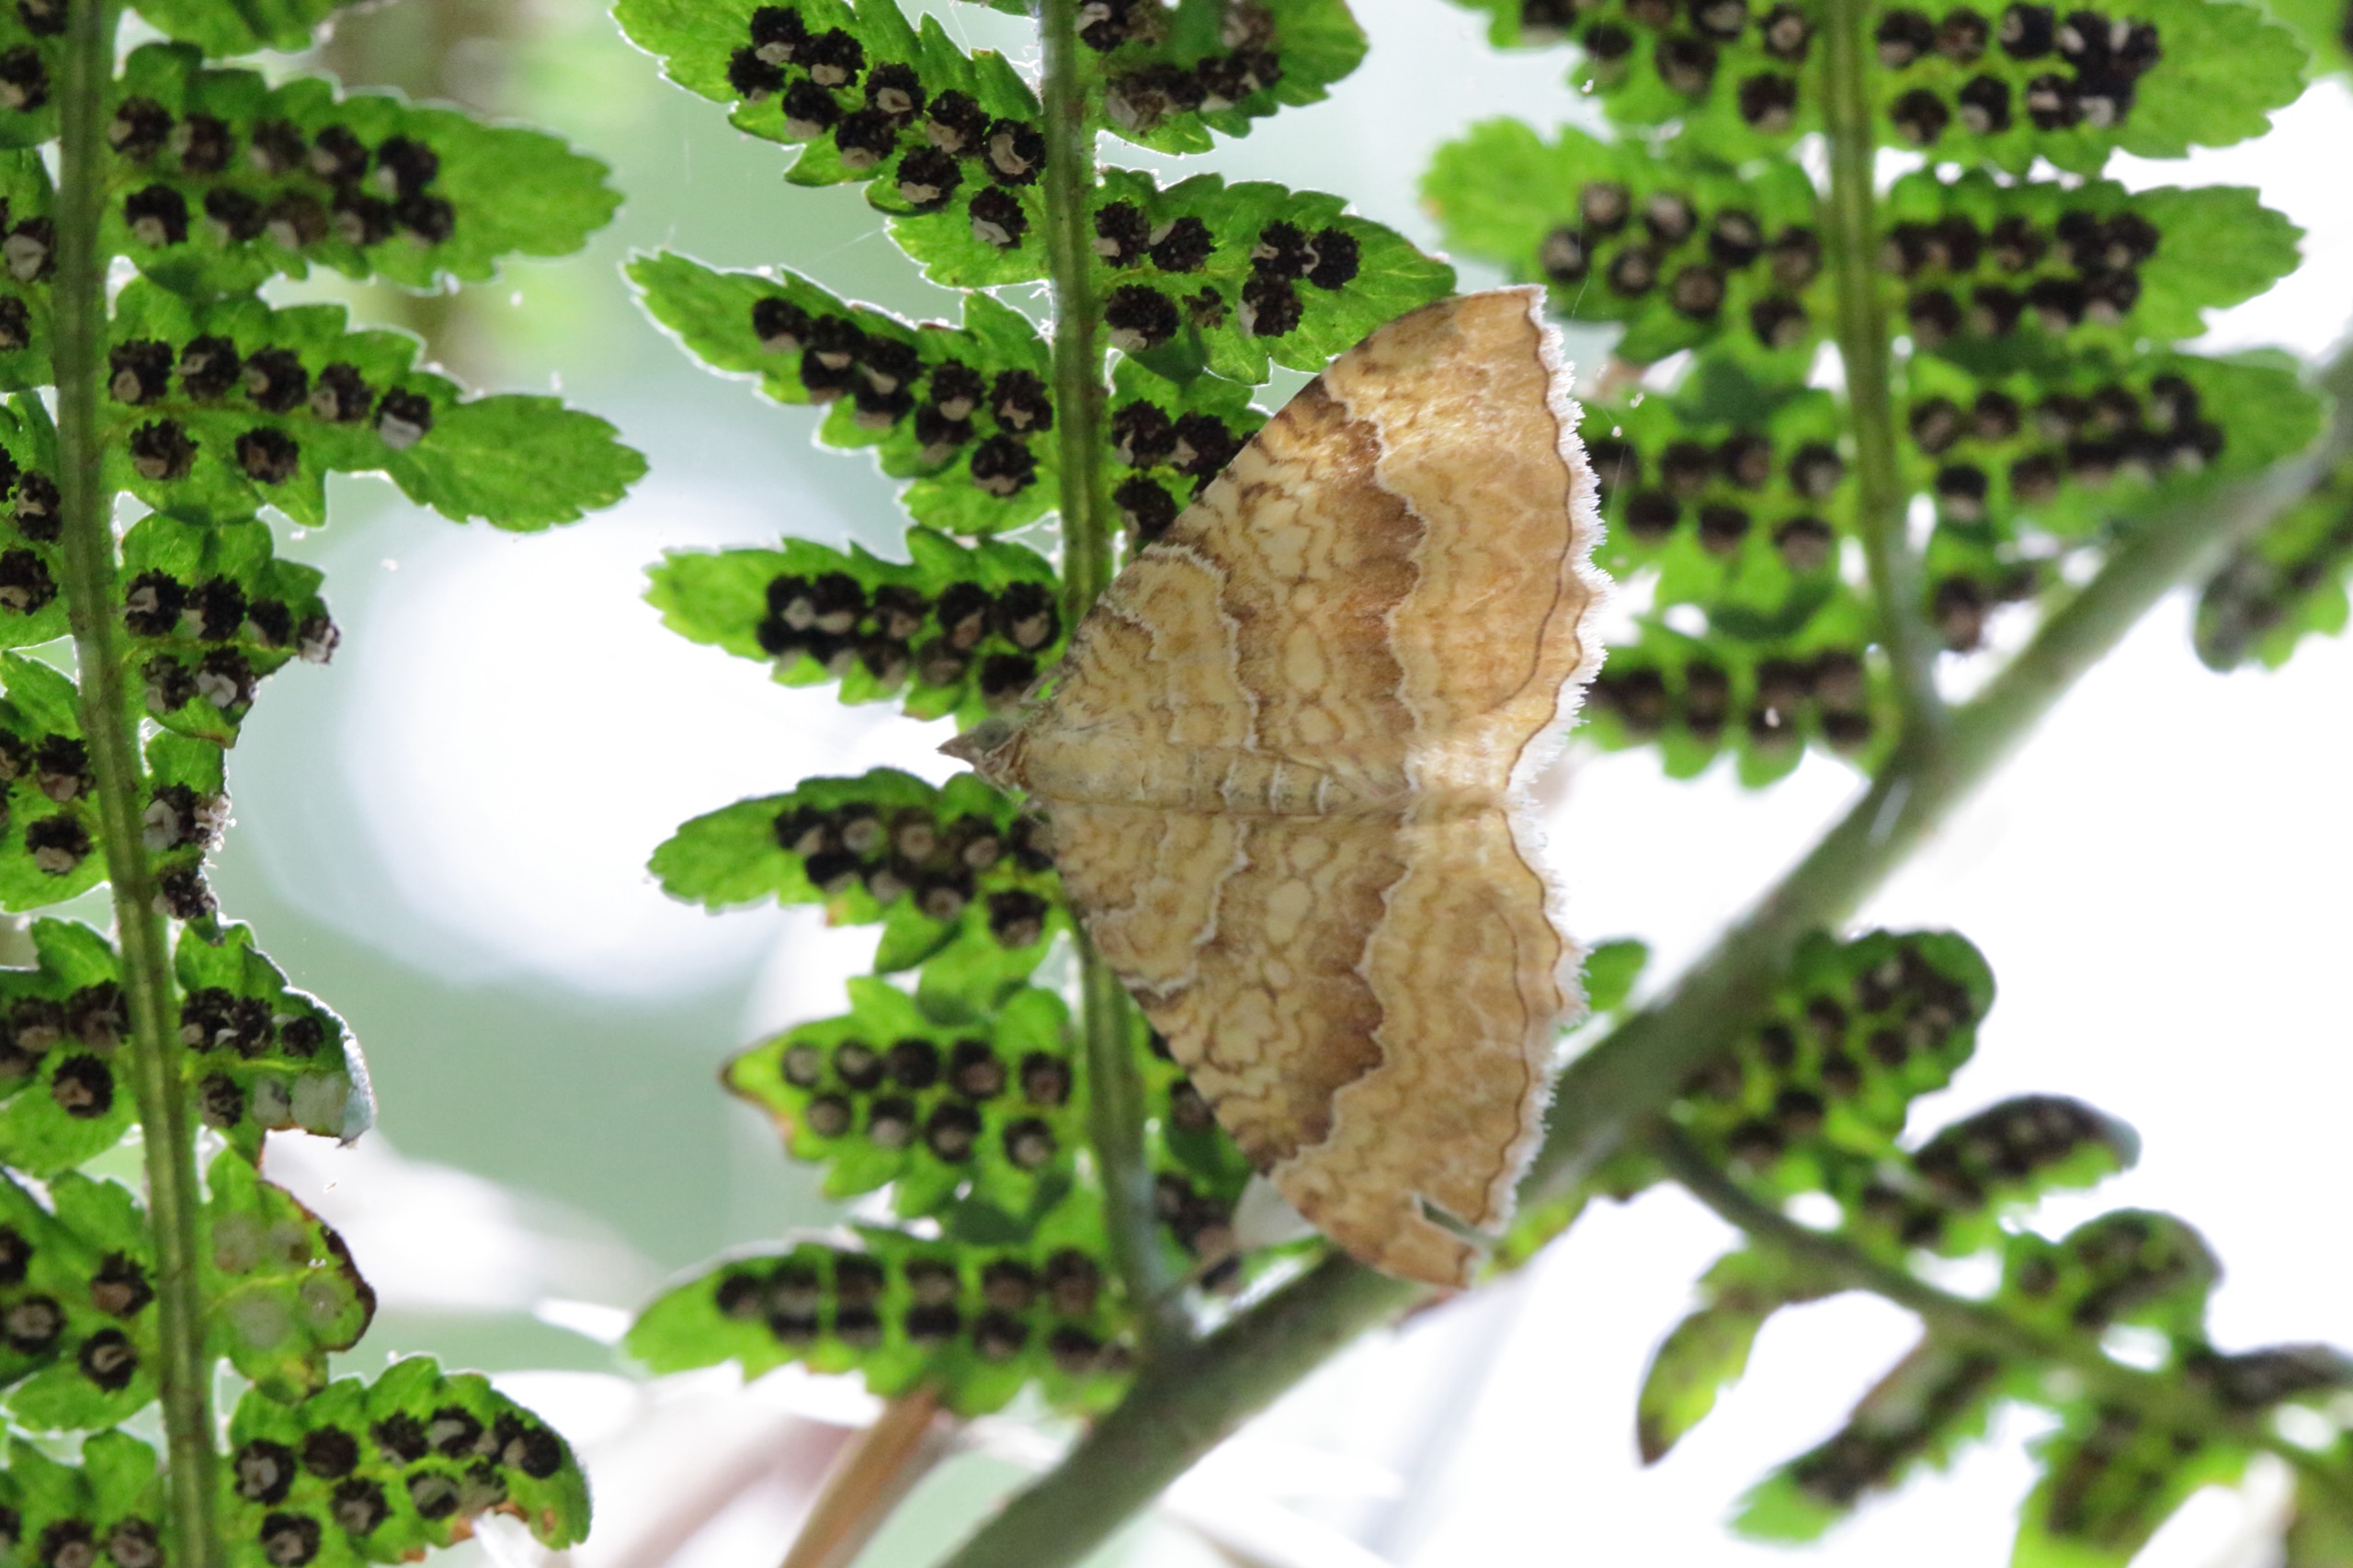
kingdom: Animalia
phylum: Arthropoda
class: Insecta
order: Lepidoptera
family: Geometridae
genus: Camptogramma
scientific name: Camptogramma bilineata
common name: Okkergul bladmåler
